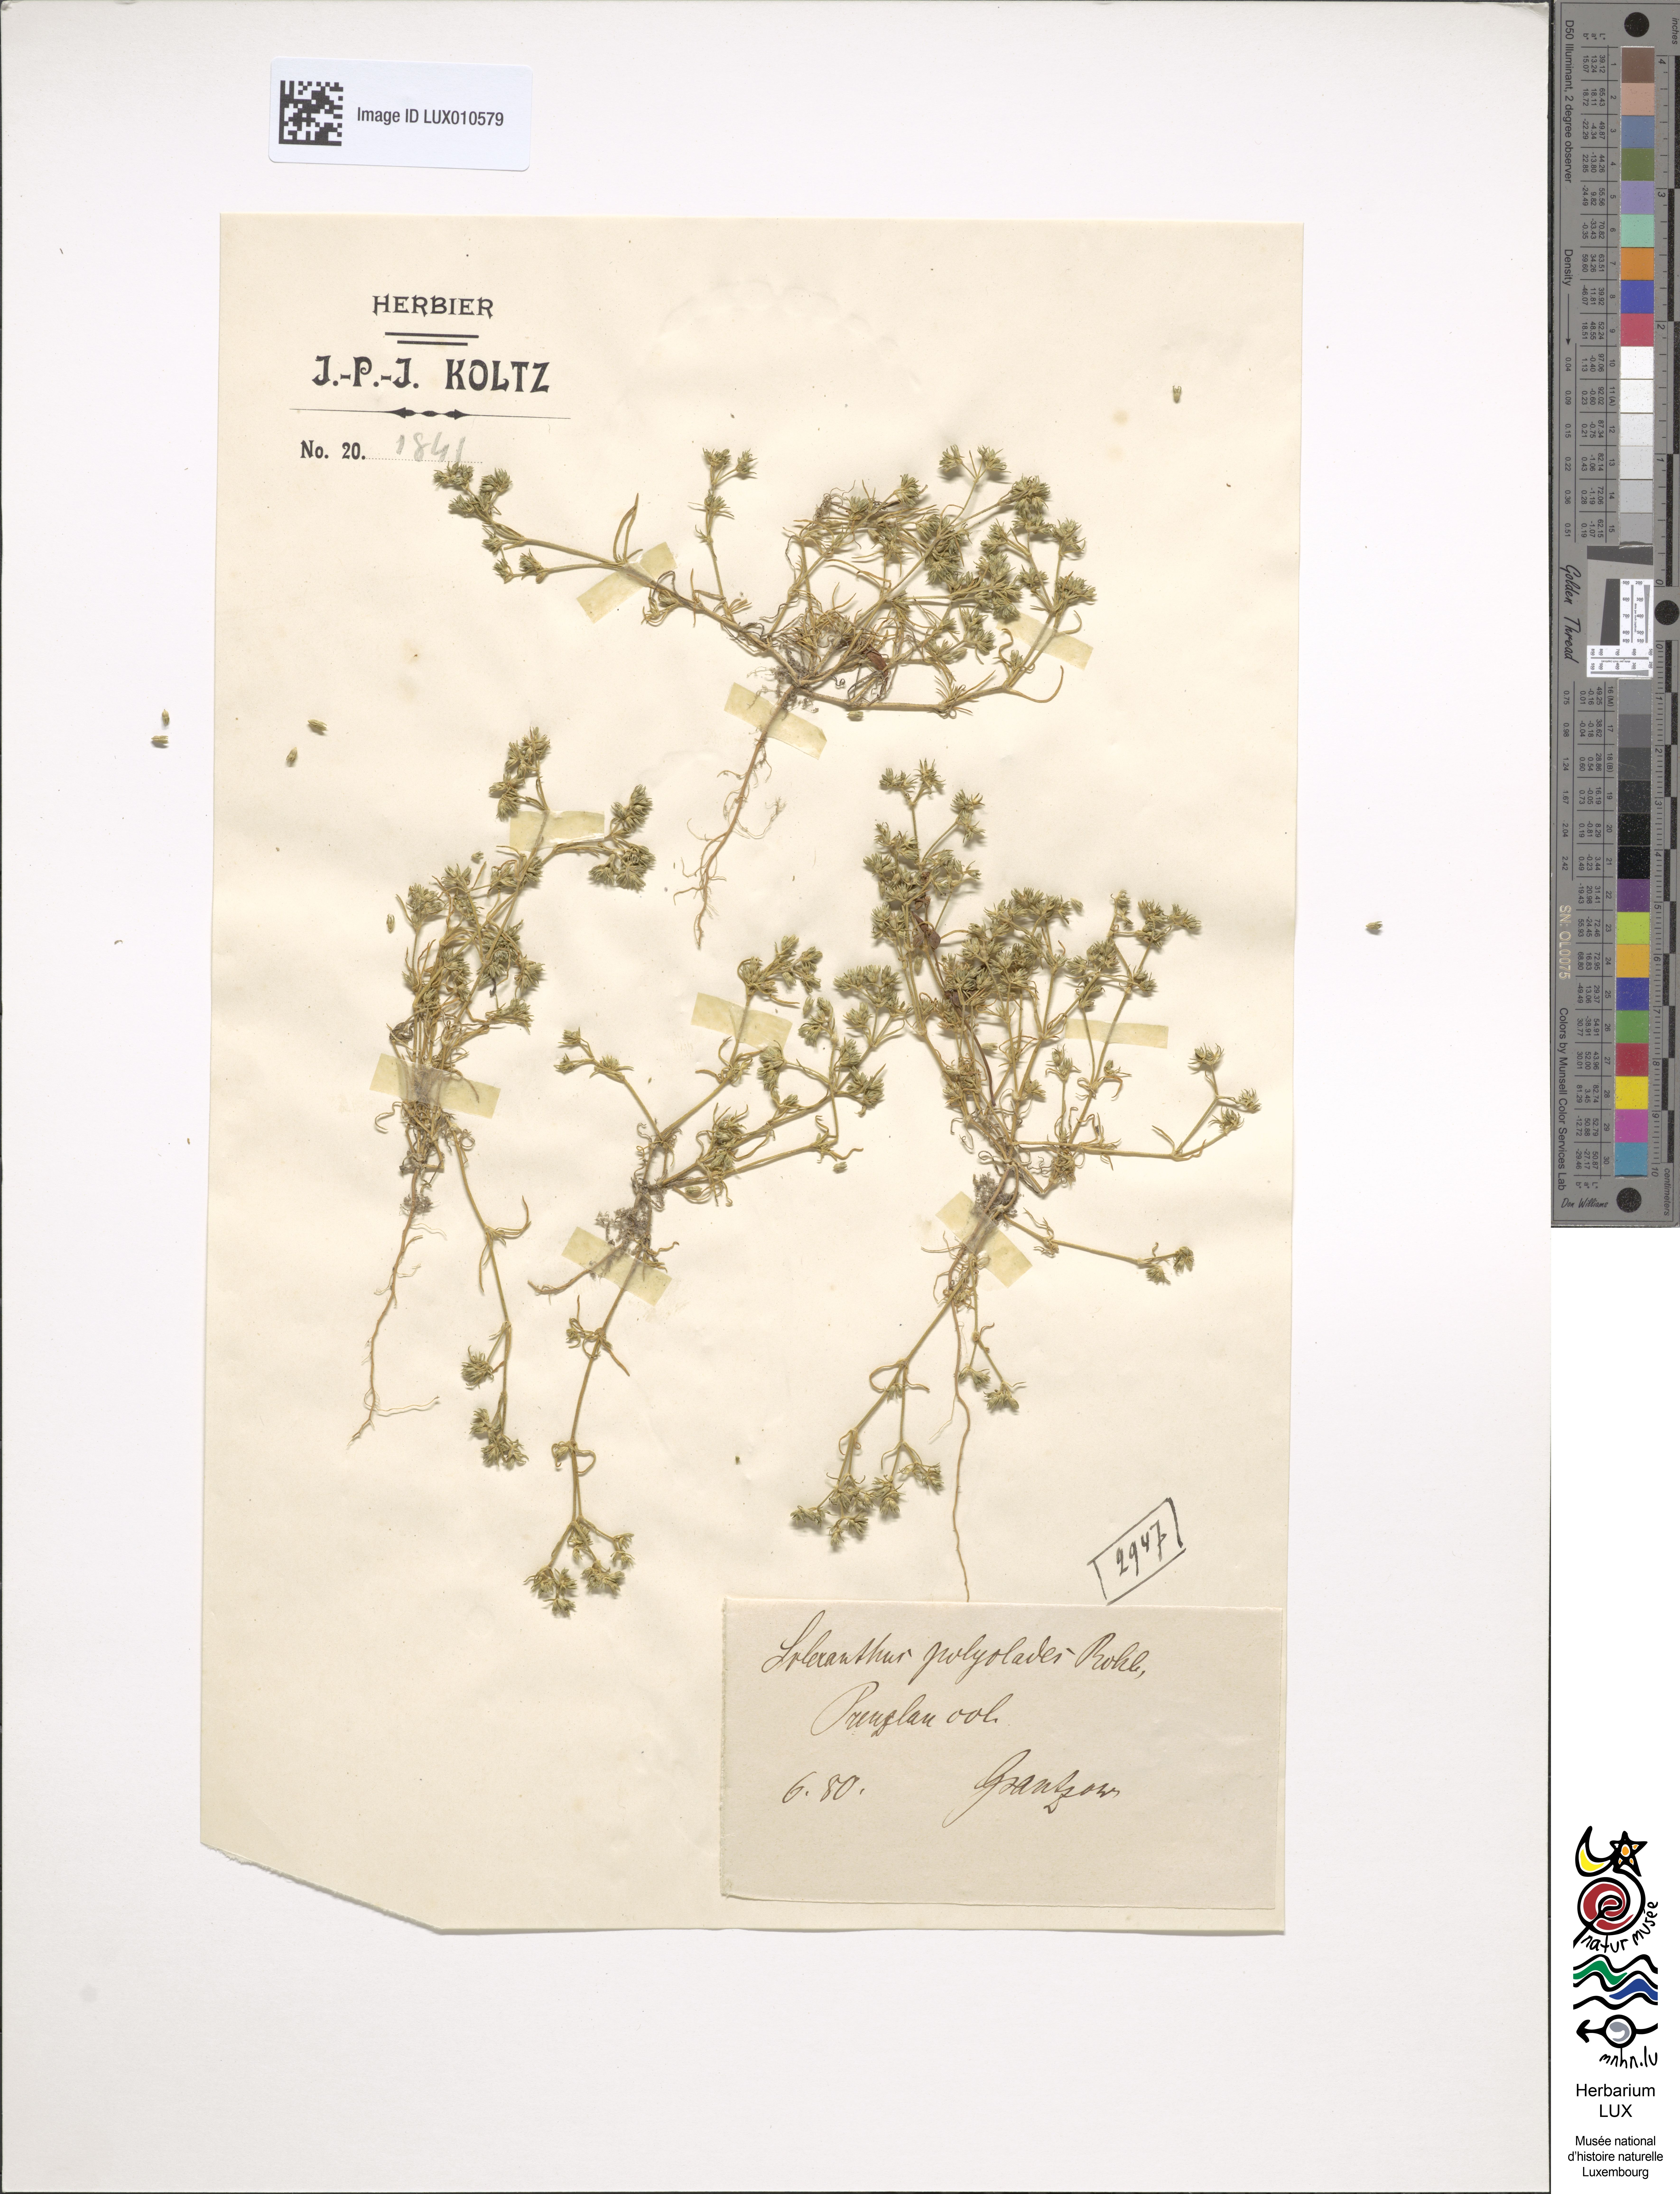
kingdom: Plantae
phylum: Tracheophyta
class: Magnoliopsida
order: Caryophyllales
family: Caryophyllaceae
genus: Scleranthus
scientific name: Scleranthus annuus
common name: Annual knawel
